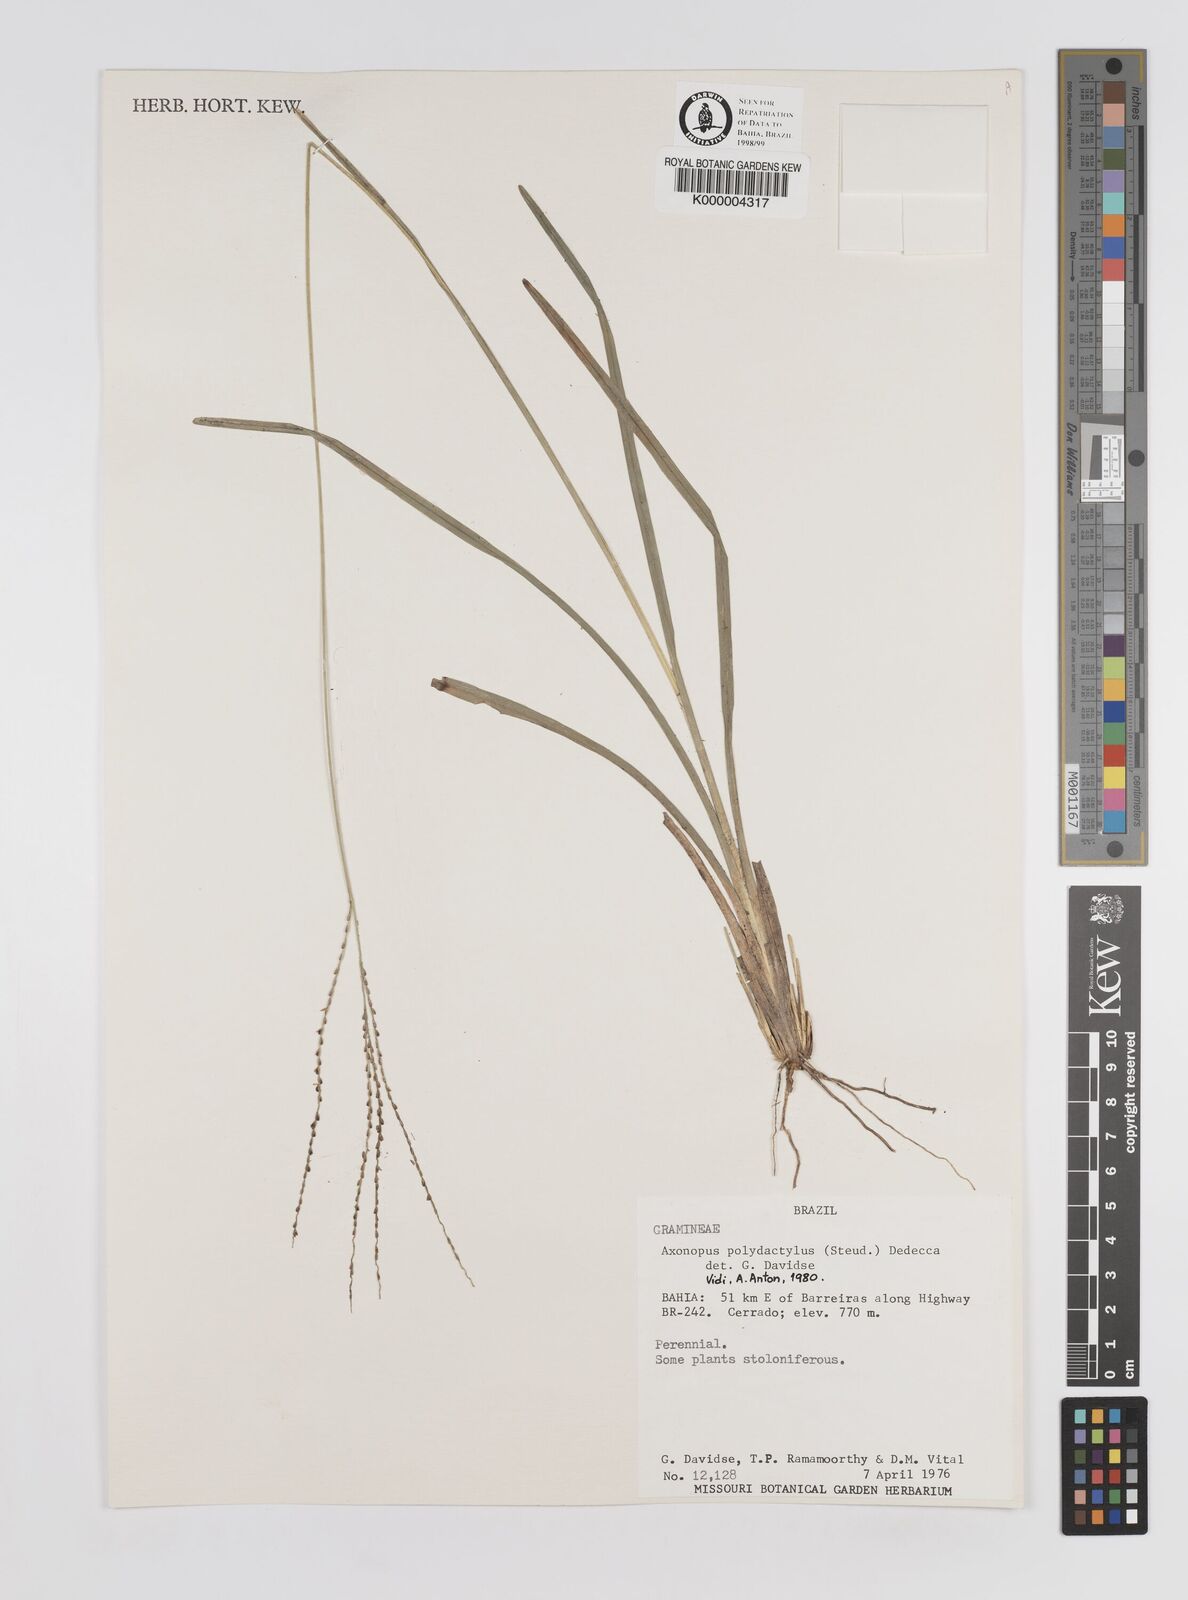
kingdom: Plantae
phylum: Tracheophyta
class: Liliopsida
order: Poales
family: Poaceae
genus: Axonopus
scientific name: Axonopus polydactylus
